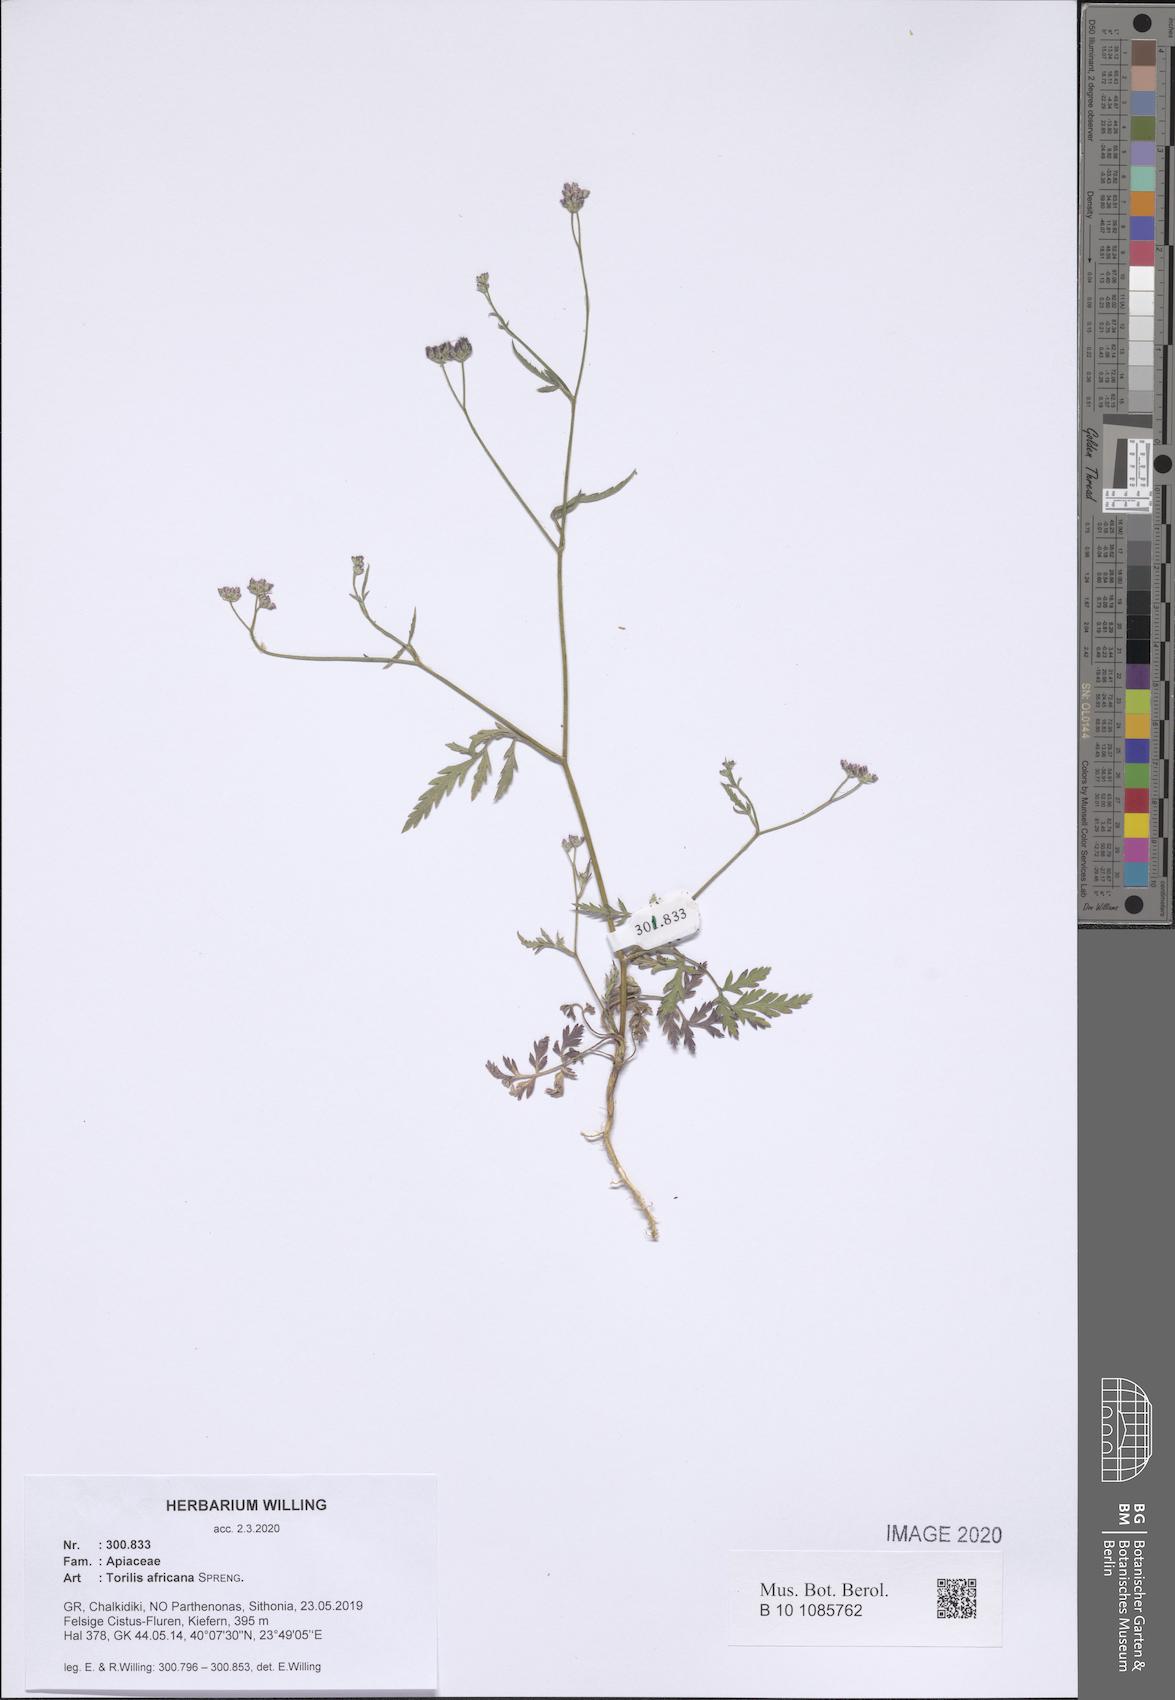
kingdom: Plantae
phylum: Tracheophyta
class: Magnoliopsida
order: Apiales
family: Apiaceae
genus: Torilis
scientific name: Torilis africana
